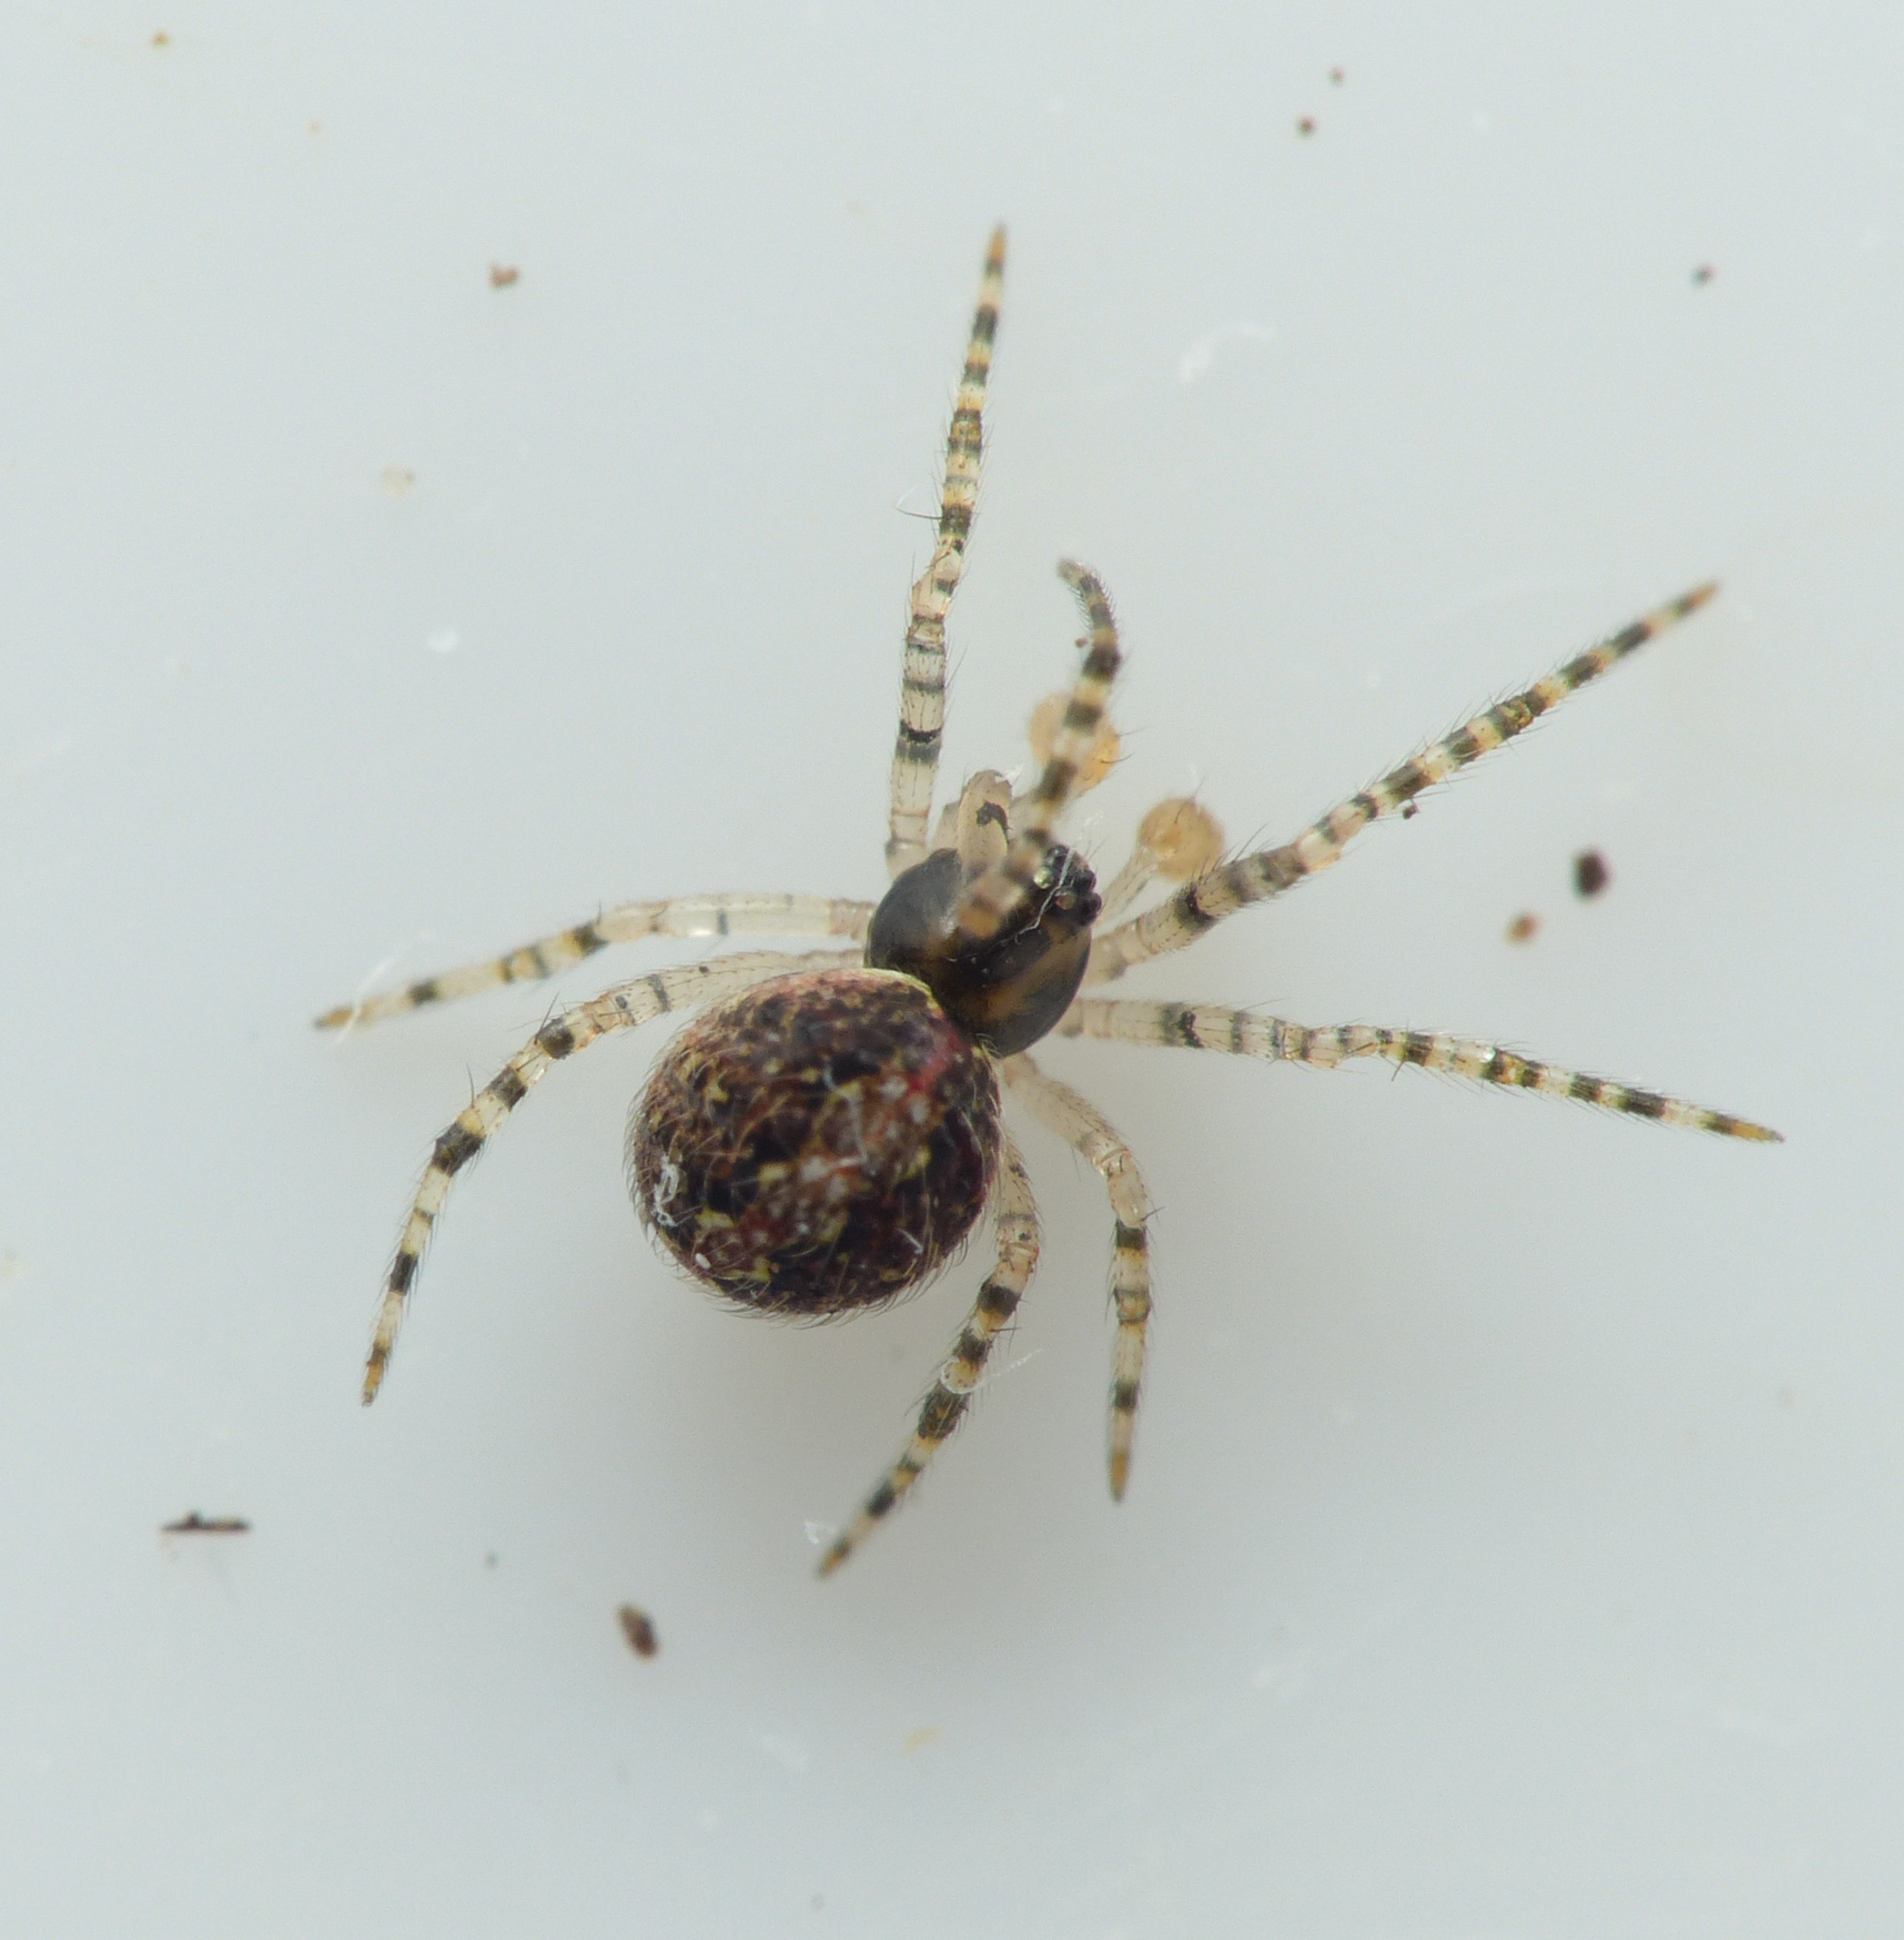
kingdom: Animalia
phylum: Arthropoda
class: Arachnida
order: Araneae
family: Theridiidae
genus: Theridion
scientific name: Theridion
